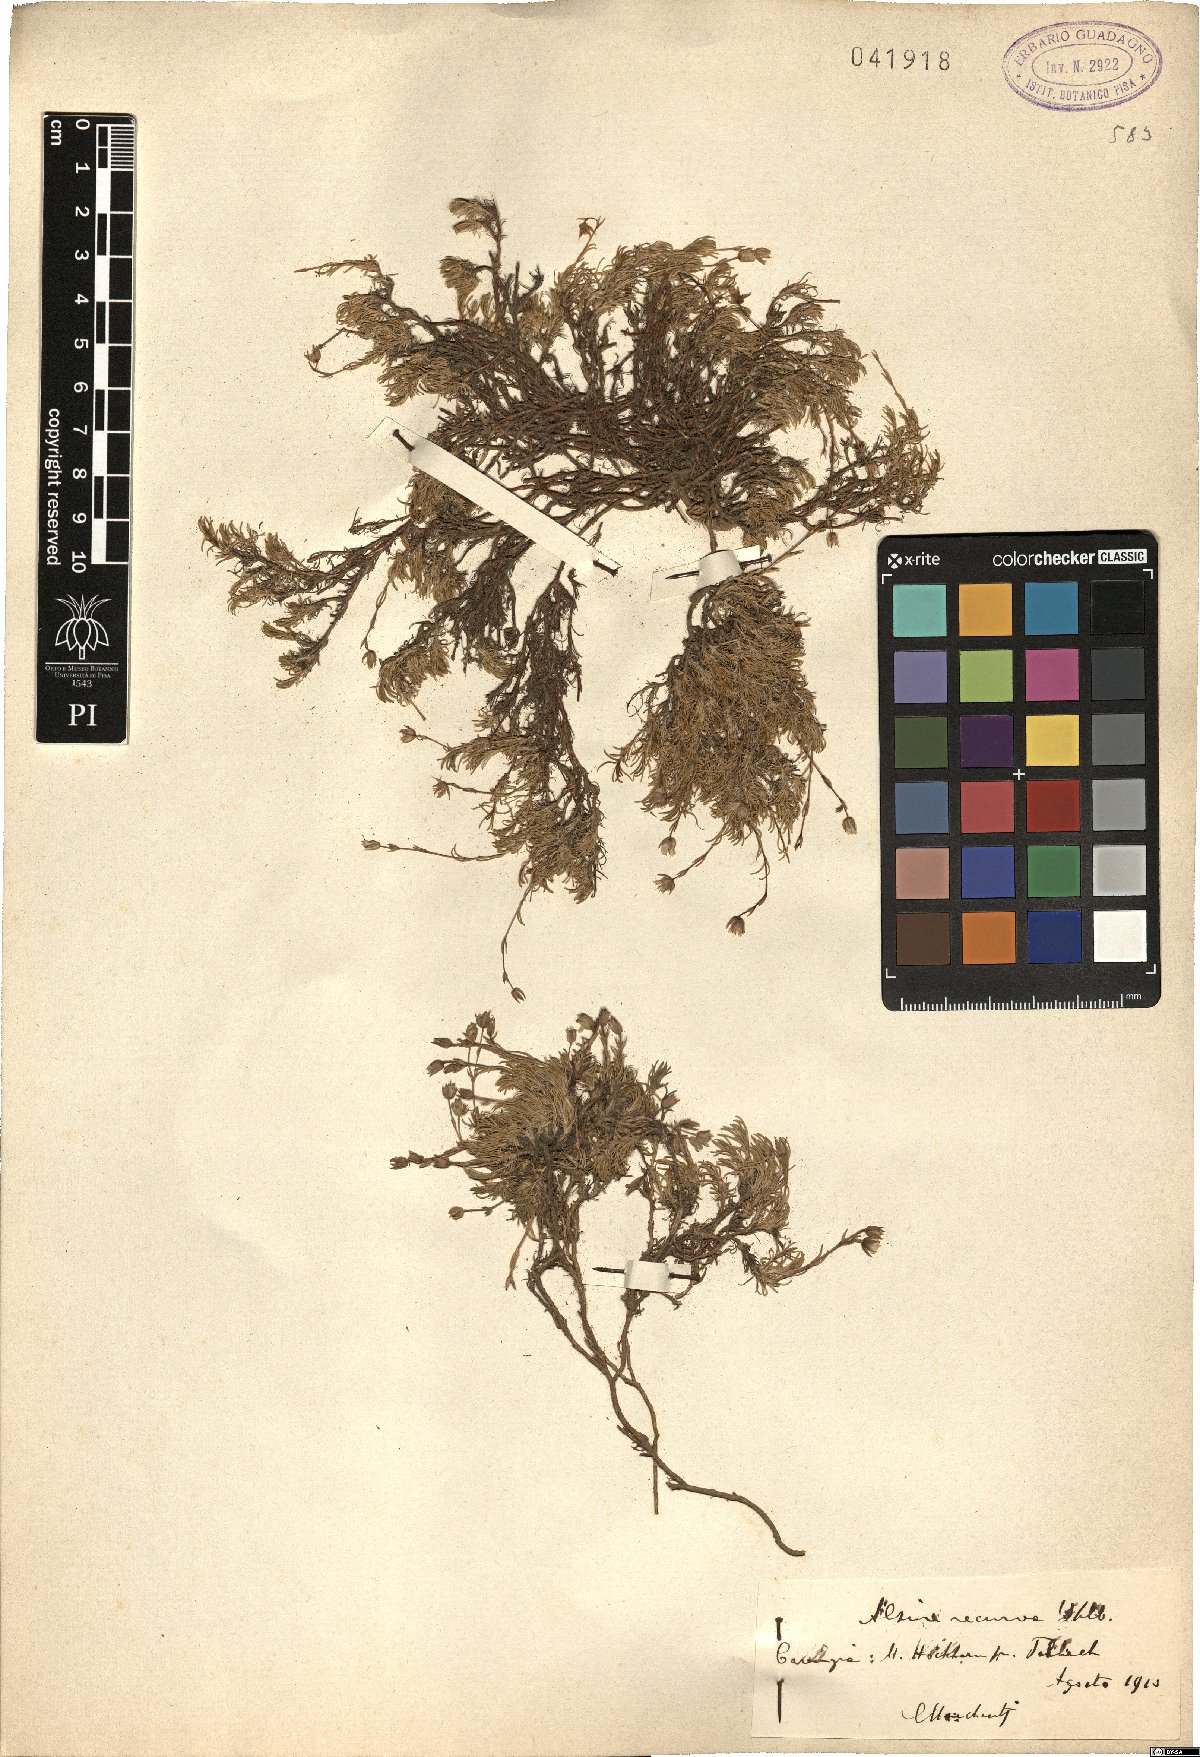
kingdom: Plantae
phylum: Tracheophyta
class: Magnoliopsida
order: Caryophyllales
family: Caryophyllaceae
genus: Minuartia
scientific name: Minuartia recurva
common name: Recurved sandwort
